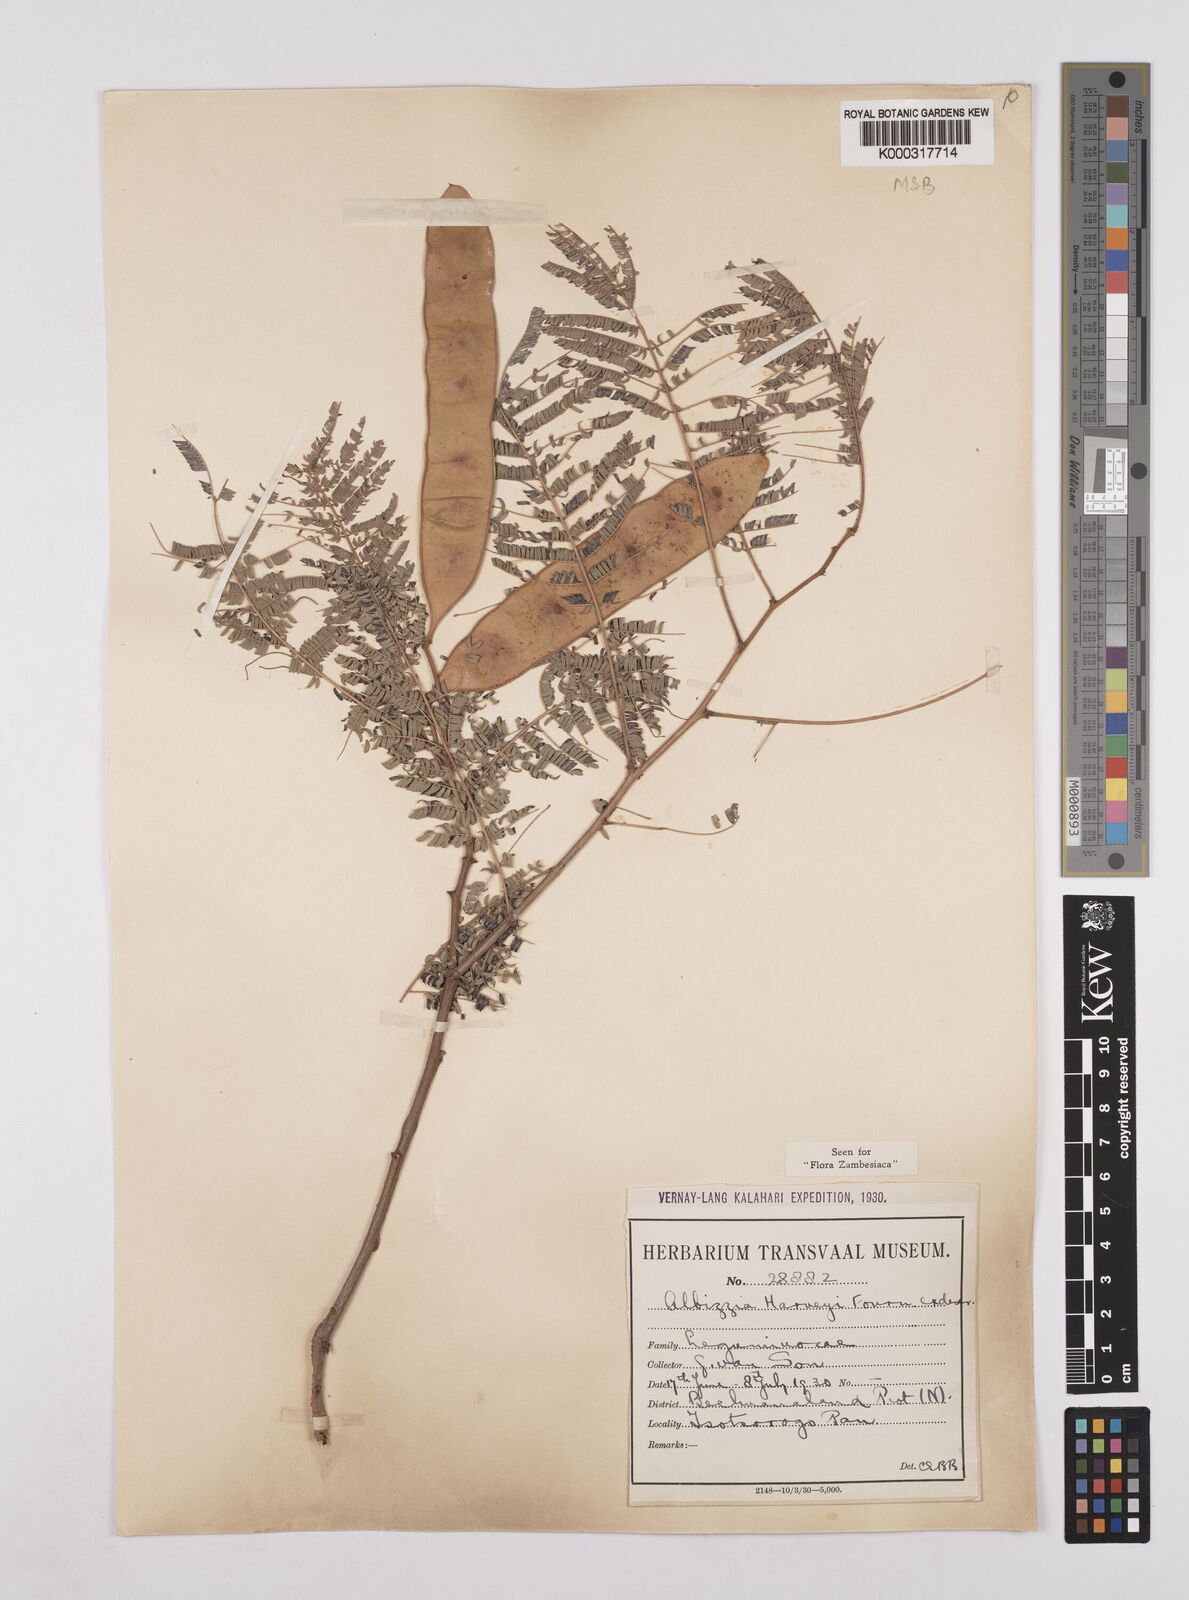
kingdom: Plantae
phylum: Tracheophyta
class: Magnoliopsida
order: Fabales
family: Fabaceae
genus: Albizia
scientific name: Albizia harveyi
